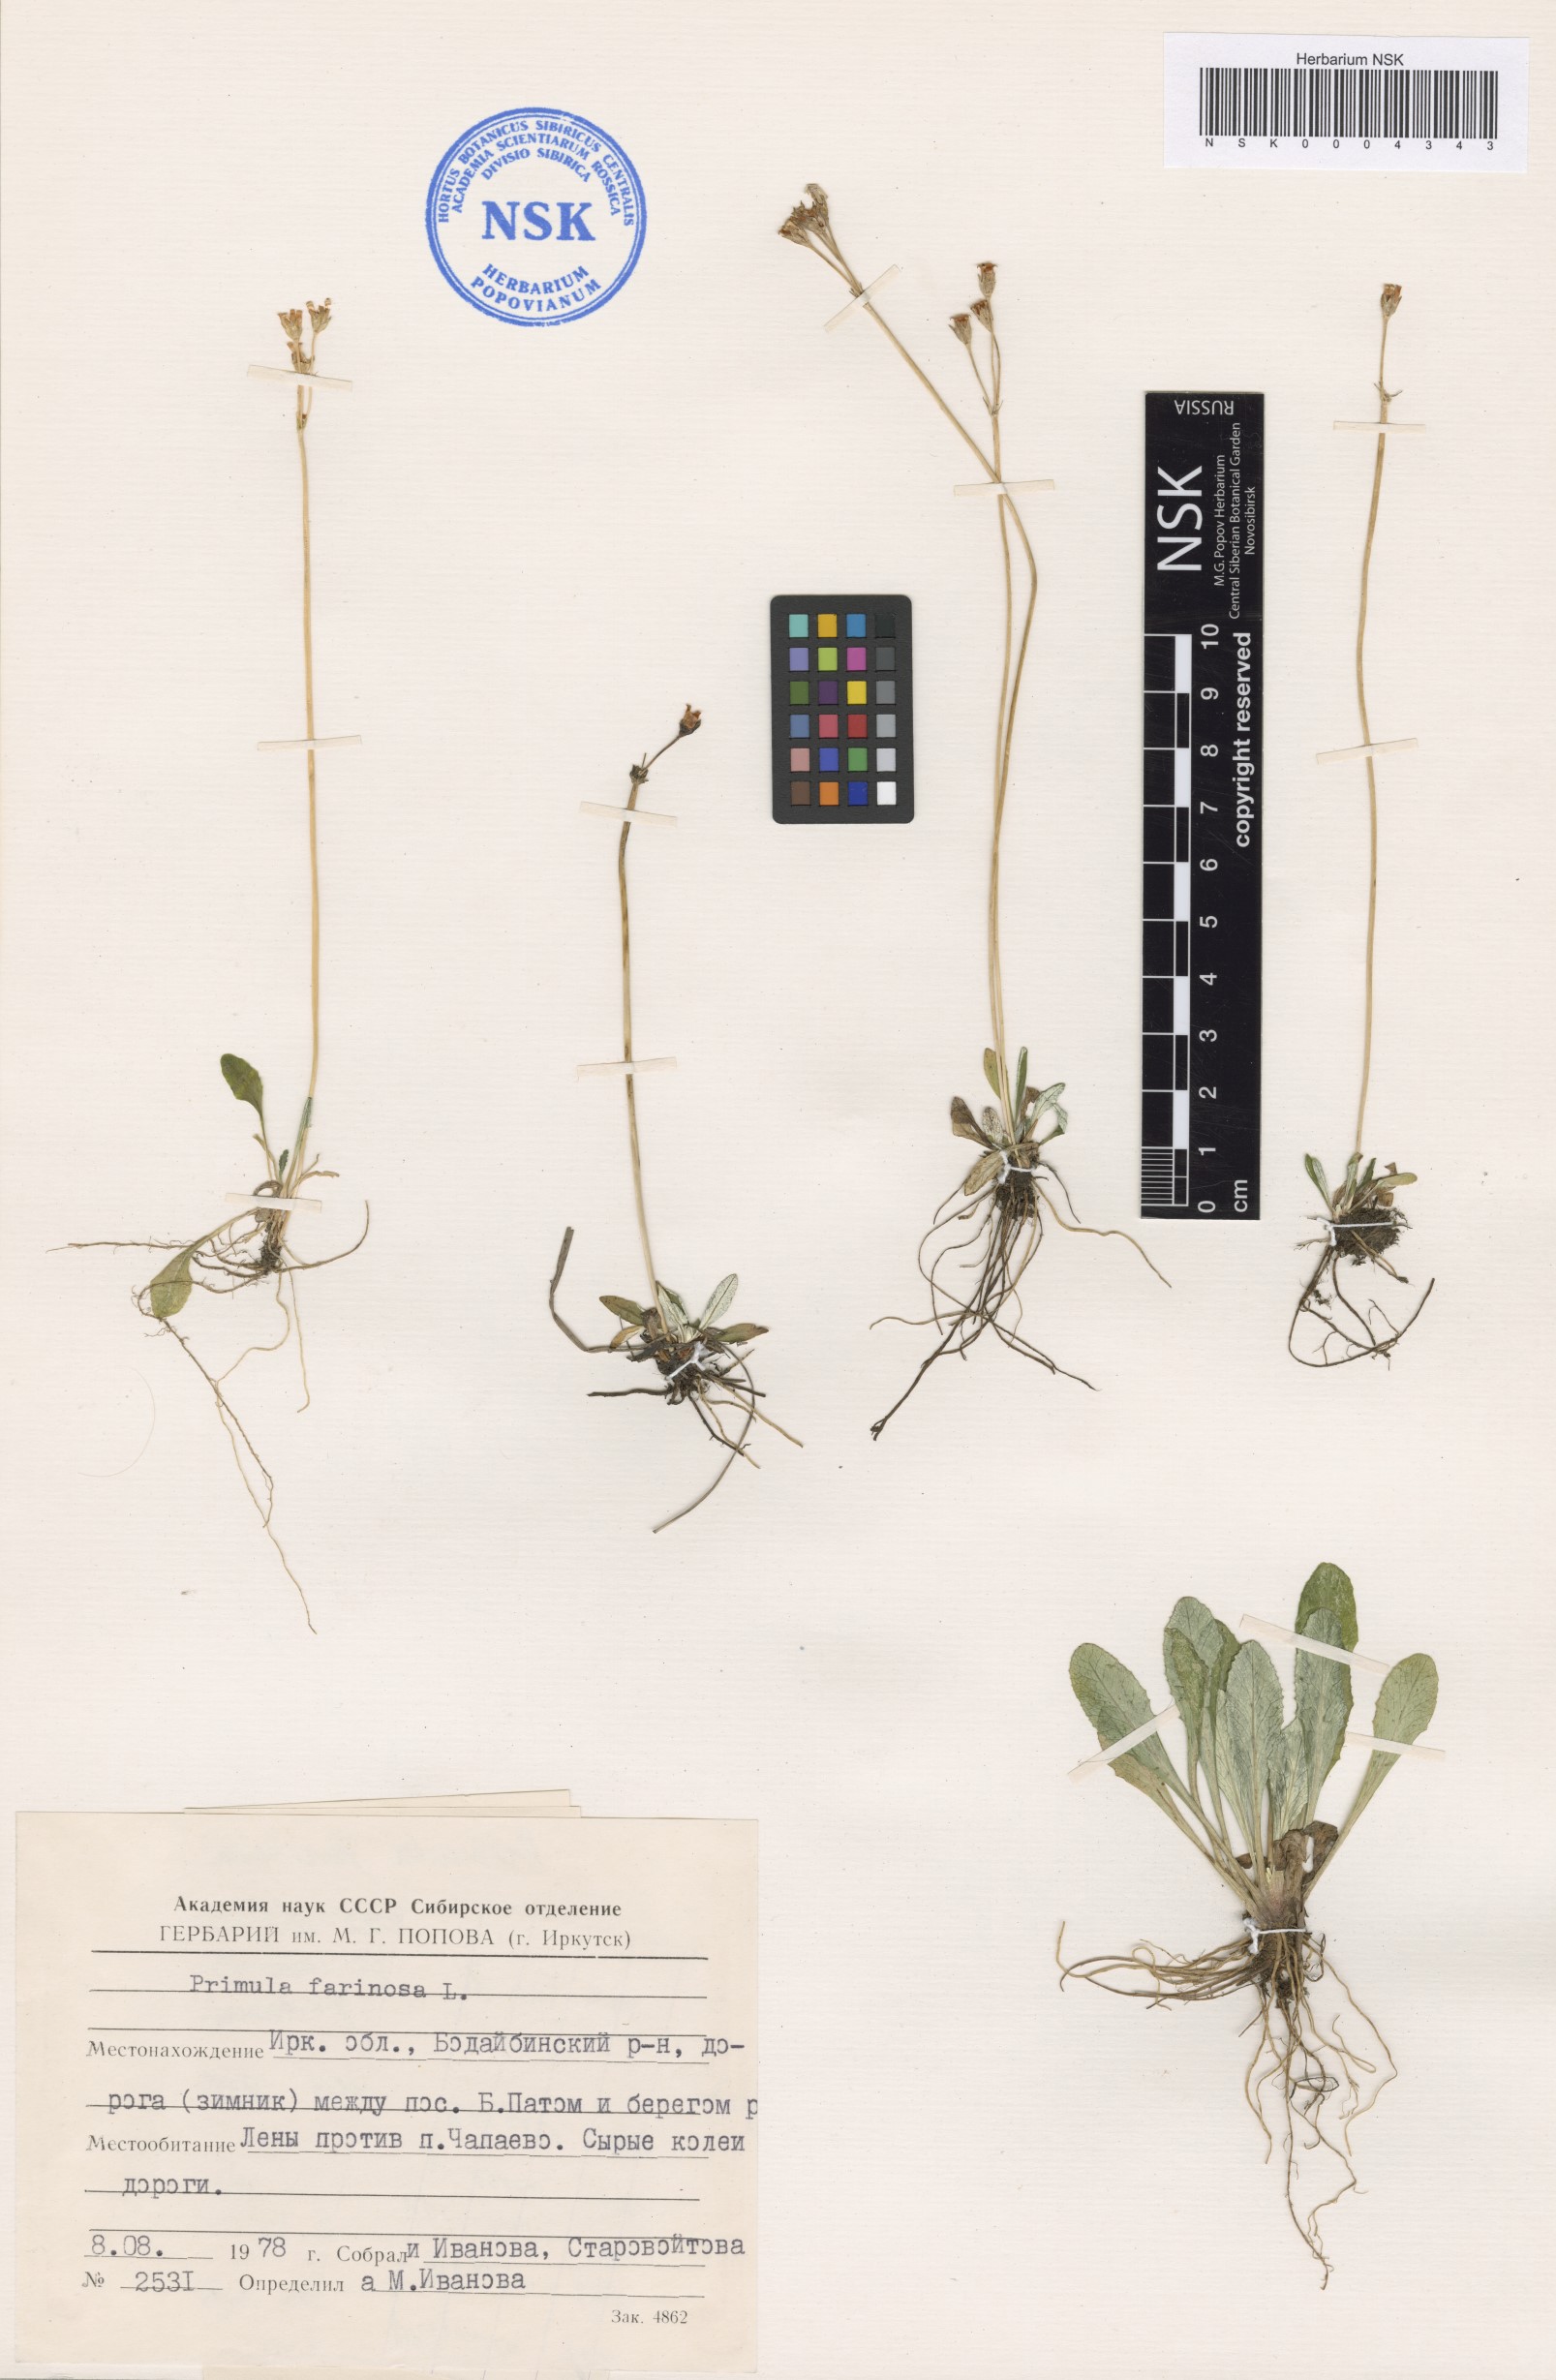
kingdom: Plantae
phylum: Tracheophyta
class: Magnoliopsida
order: Ericales
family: Primulaceae
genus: Primula
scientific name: Primula farinosa
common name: Bird's-eye primrose
